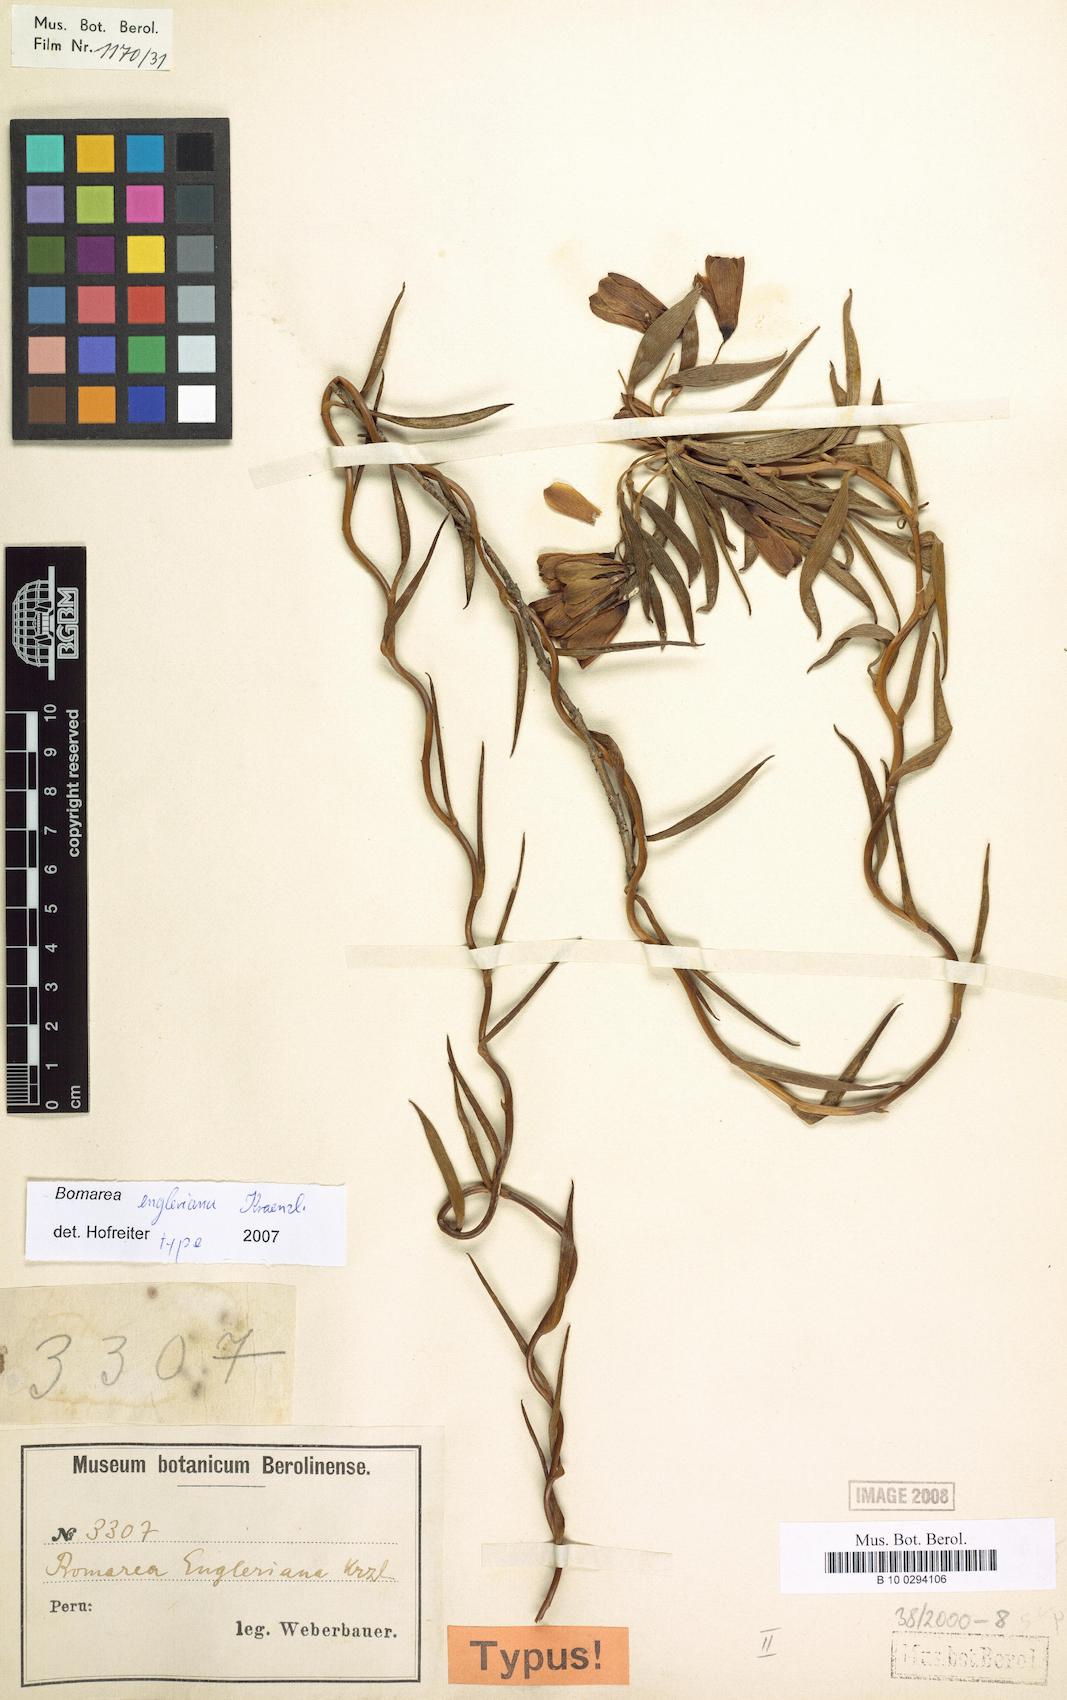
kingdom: Plantae
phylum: Tracheophyta
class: Liliopsida
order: Liliales
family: Alstroemeriaceae
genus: Bomarea
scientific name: Bomarea engleriana
